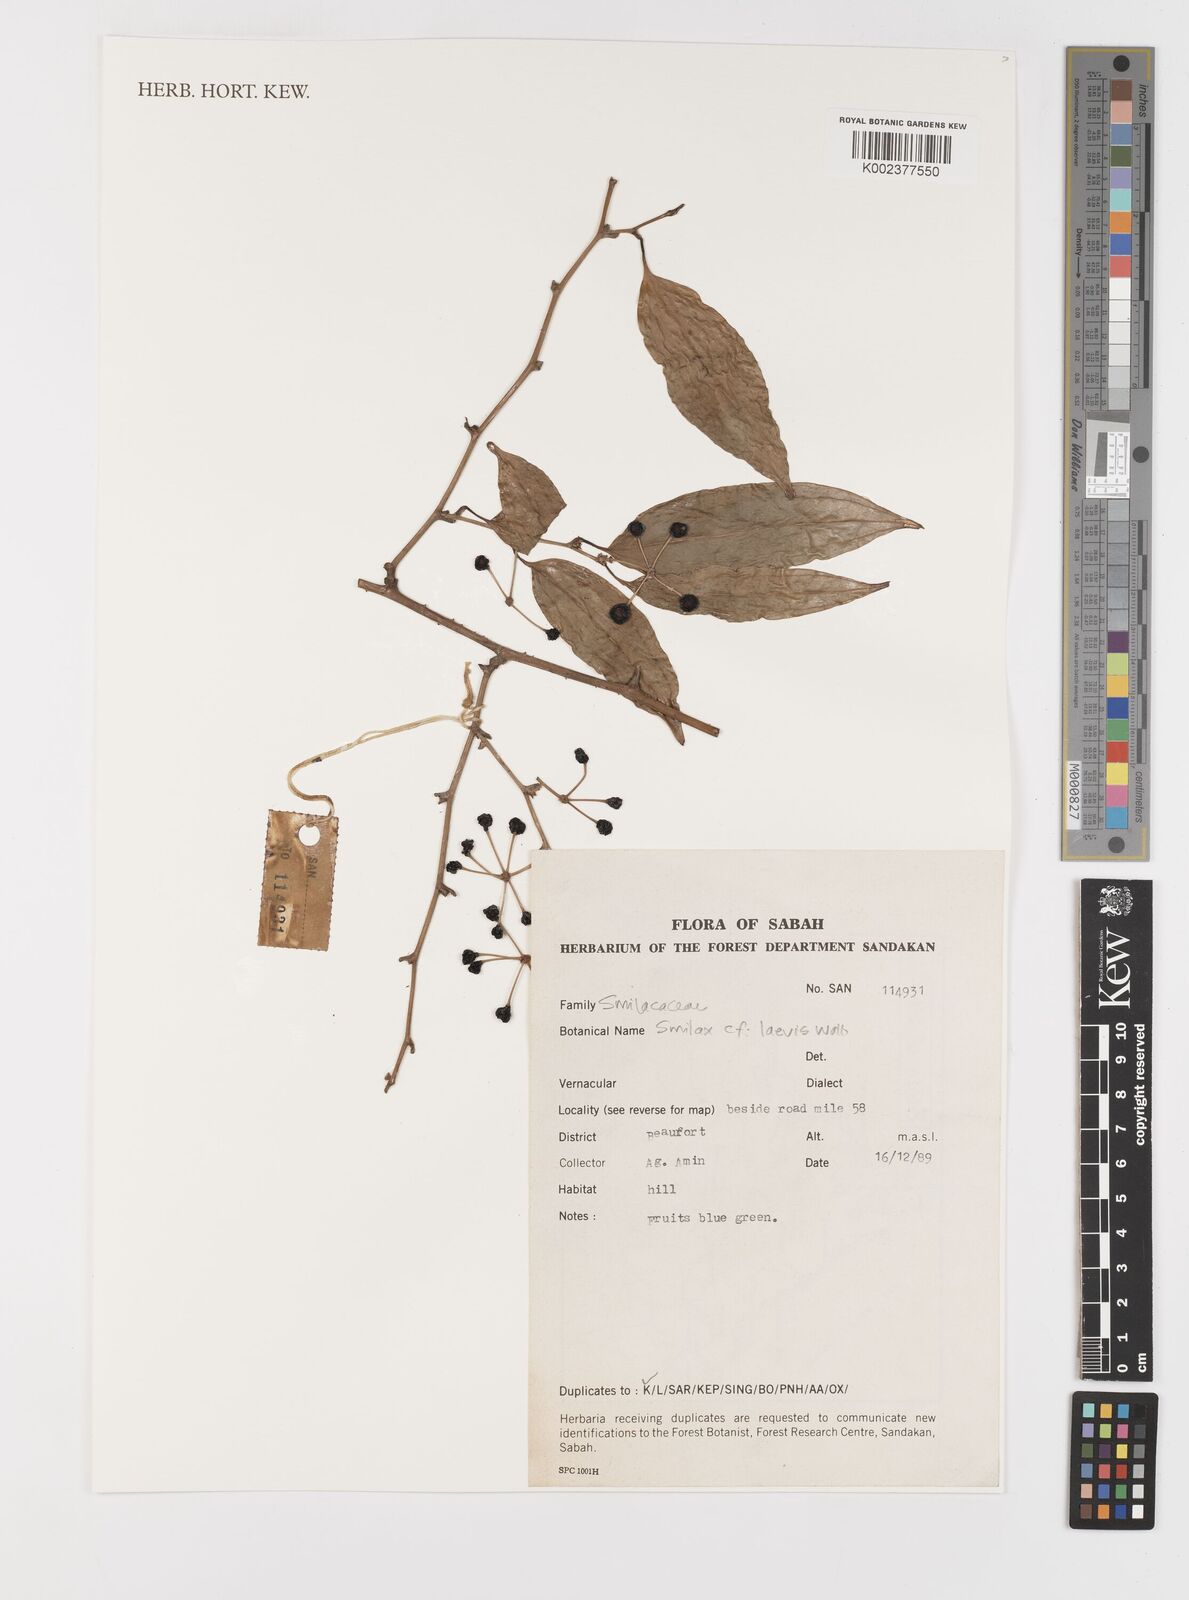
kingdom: Plantae
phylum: Tracheophyta
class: Liliopsida
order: Liliales
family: Smilacaceae
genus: Smilax
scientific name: Smilax laevis
